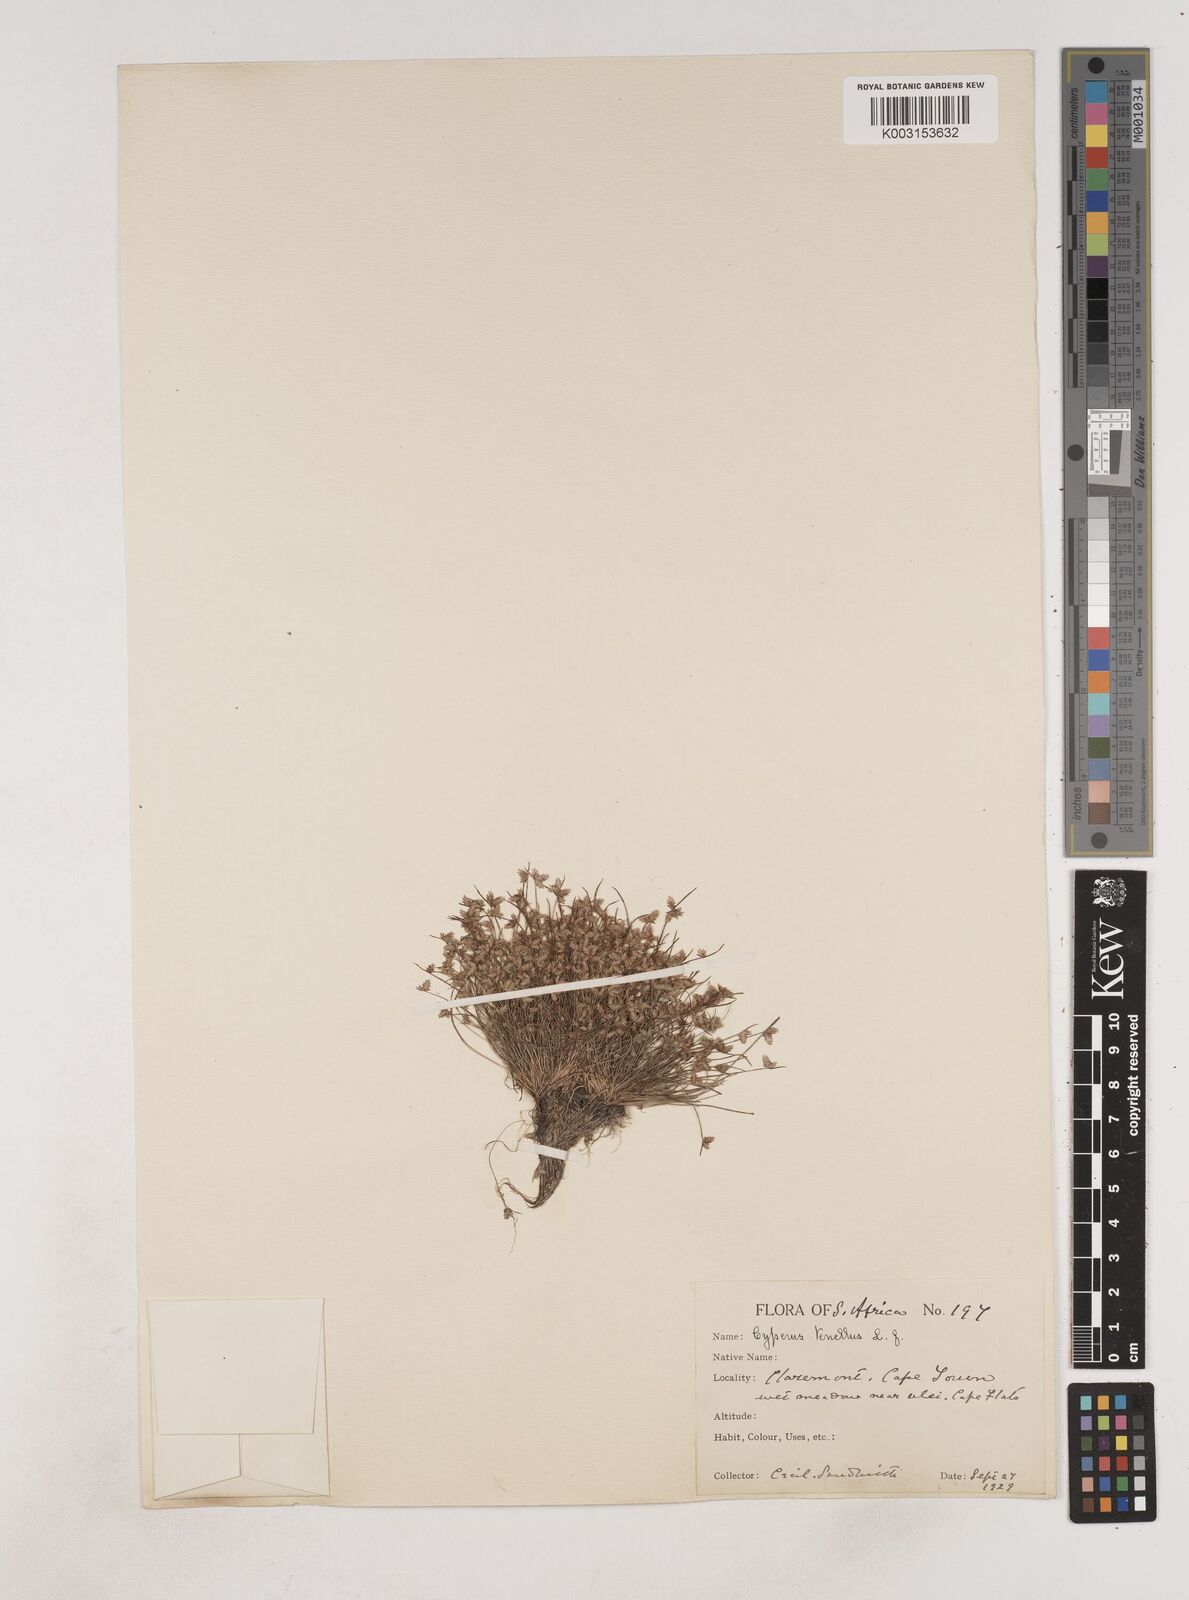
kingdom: Plantae
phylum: Tracheophyta
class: Liliopsida
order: Poales
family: Cyperaceae
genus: Isolepis
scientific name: Isolepis levynsiana
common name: Sedge
